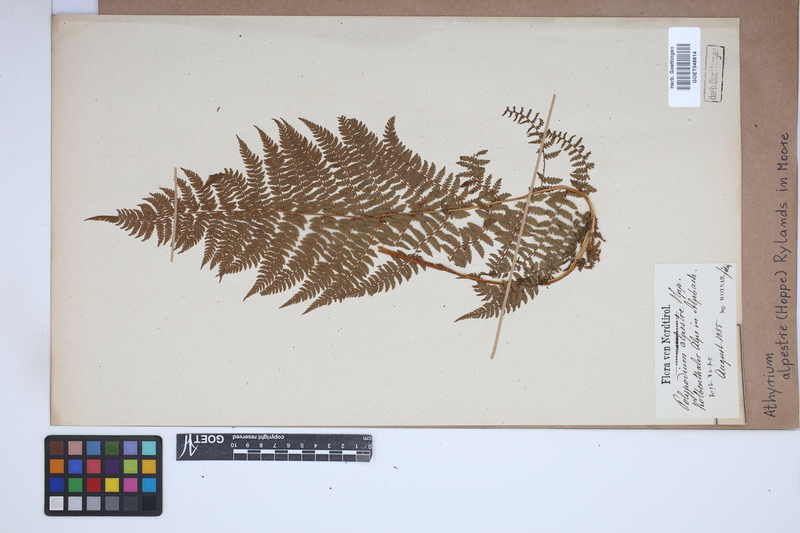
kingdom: Plantae
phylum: Tracheophyta
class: Polypodiopsida
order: Polypodiales
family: Athyriaceae
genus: Pseudathyrium
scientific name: Pseudathyrium alpestre
